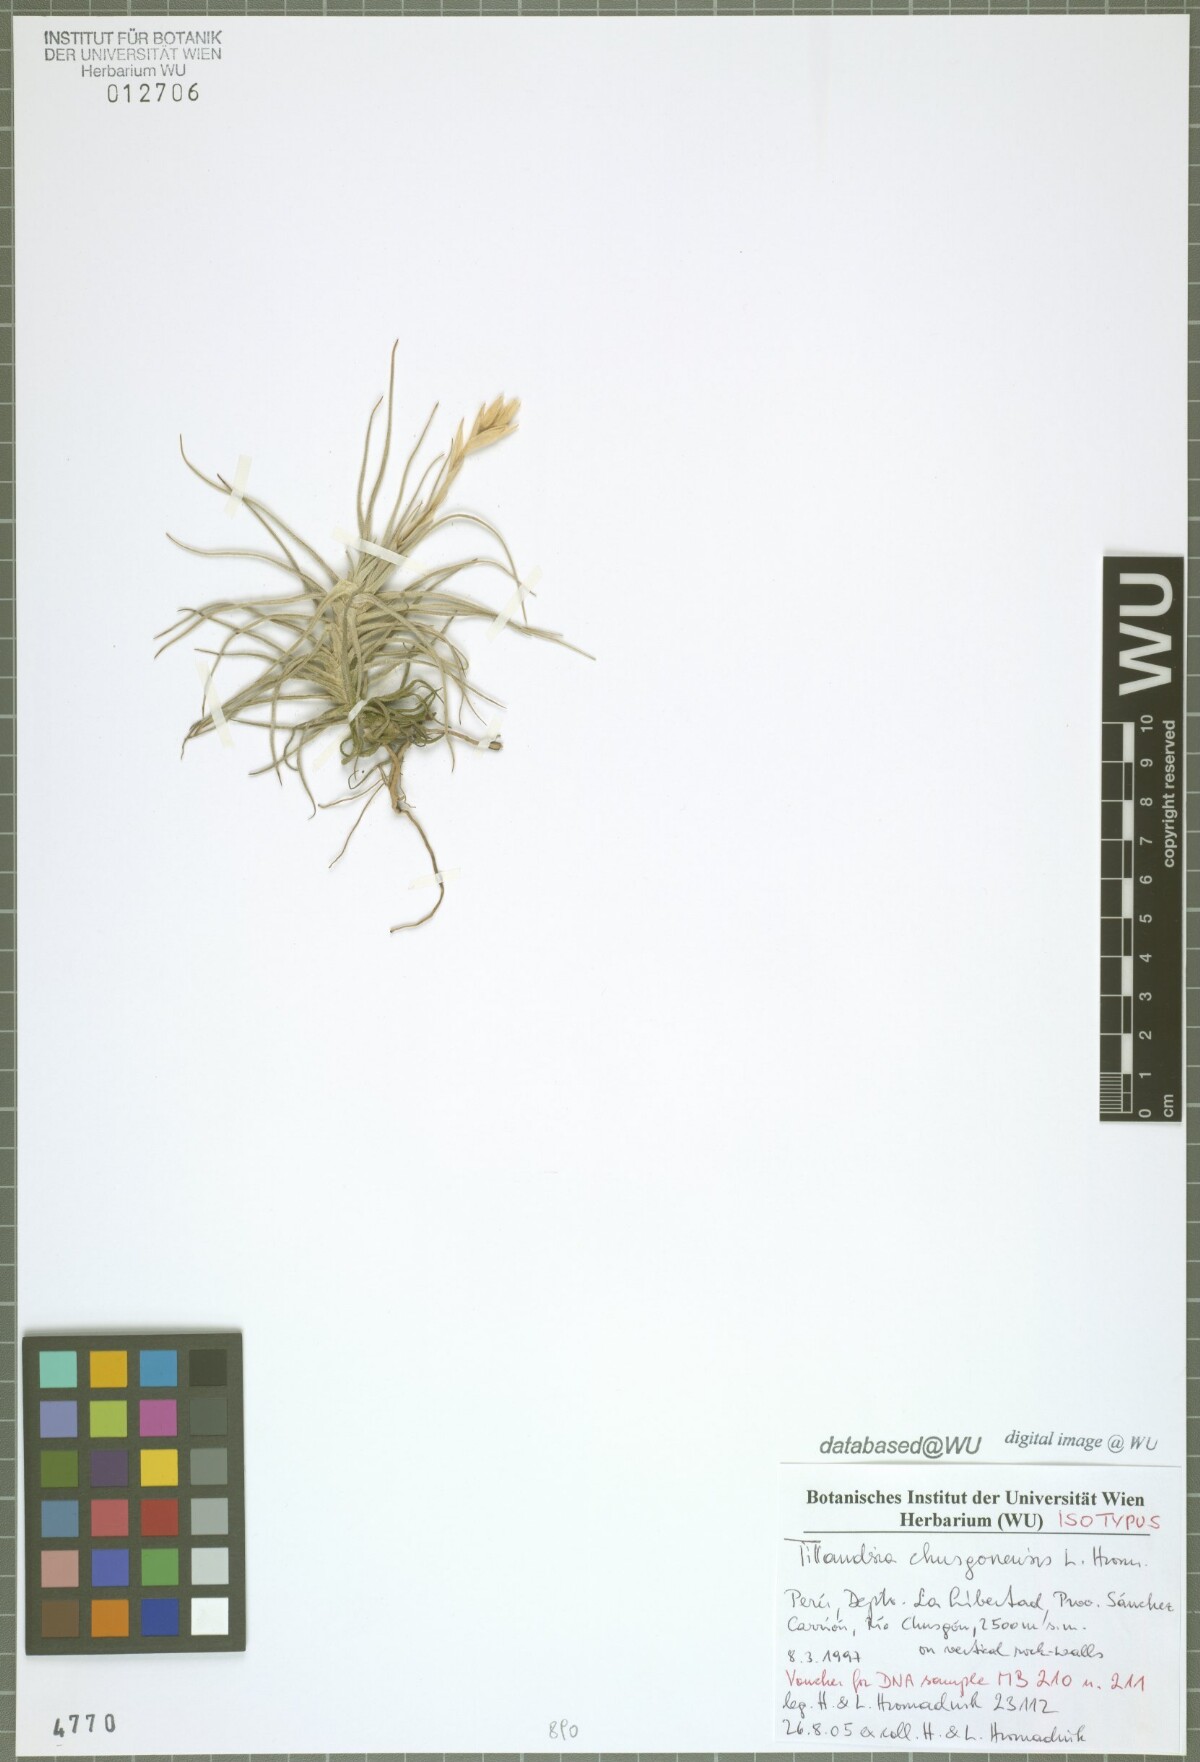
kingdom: Plantae
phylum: Tracheophyta
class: Liliopsida
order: Poales
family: Bromeliaceae
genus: Tillandsia
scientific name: Tillandsia chusgonensis
